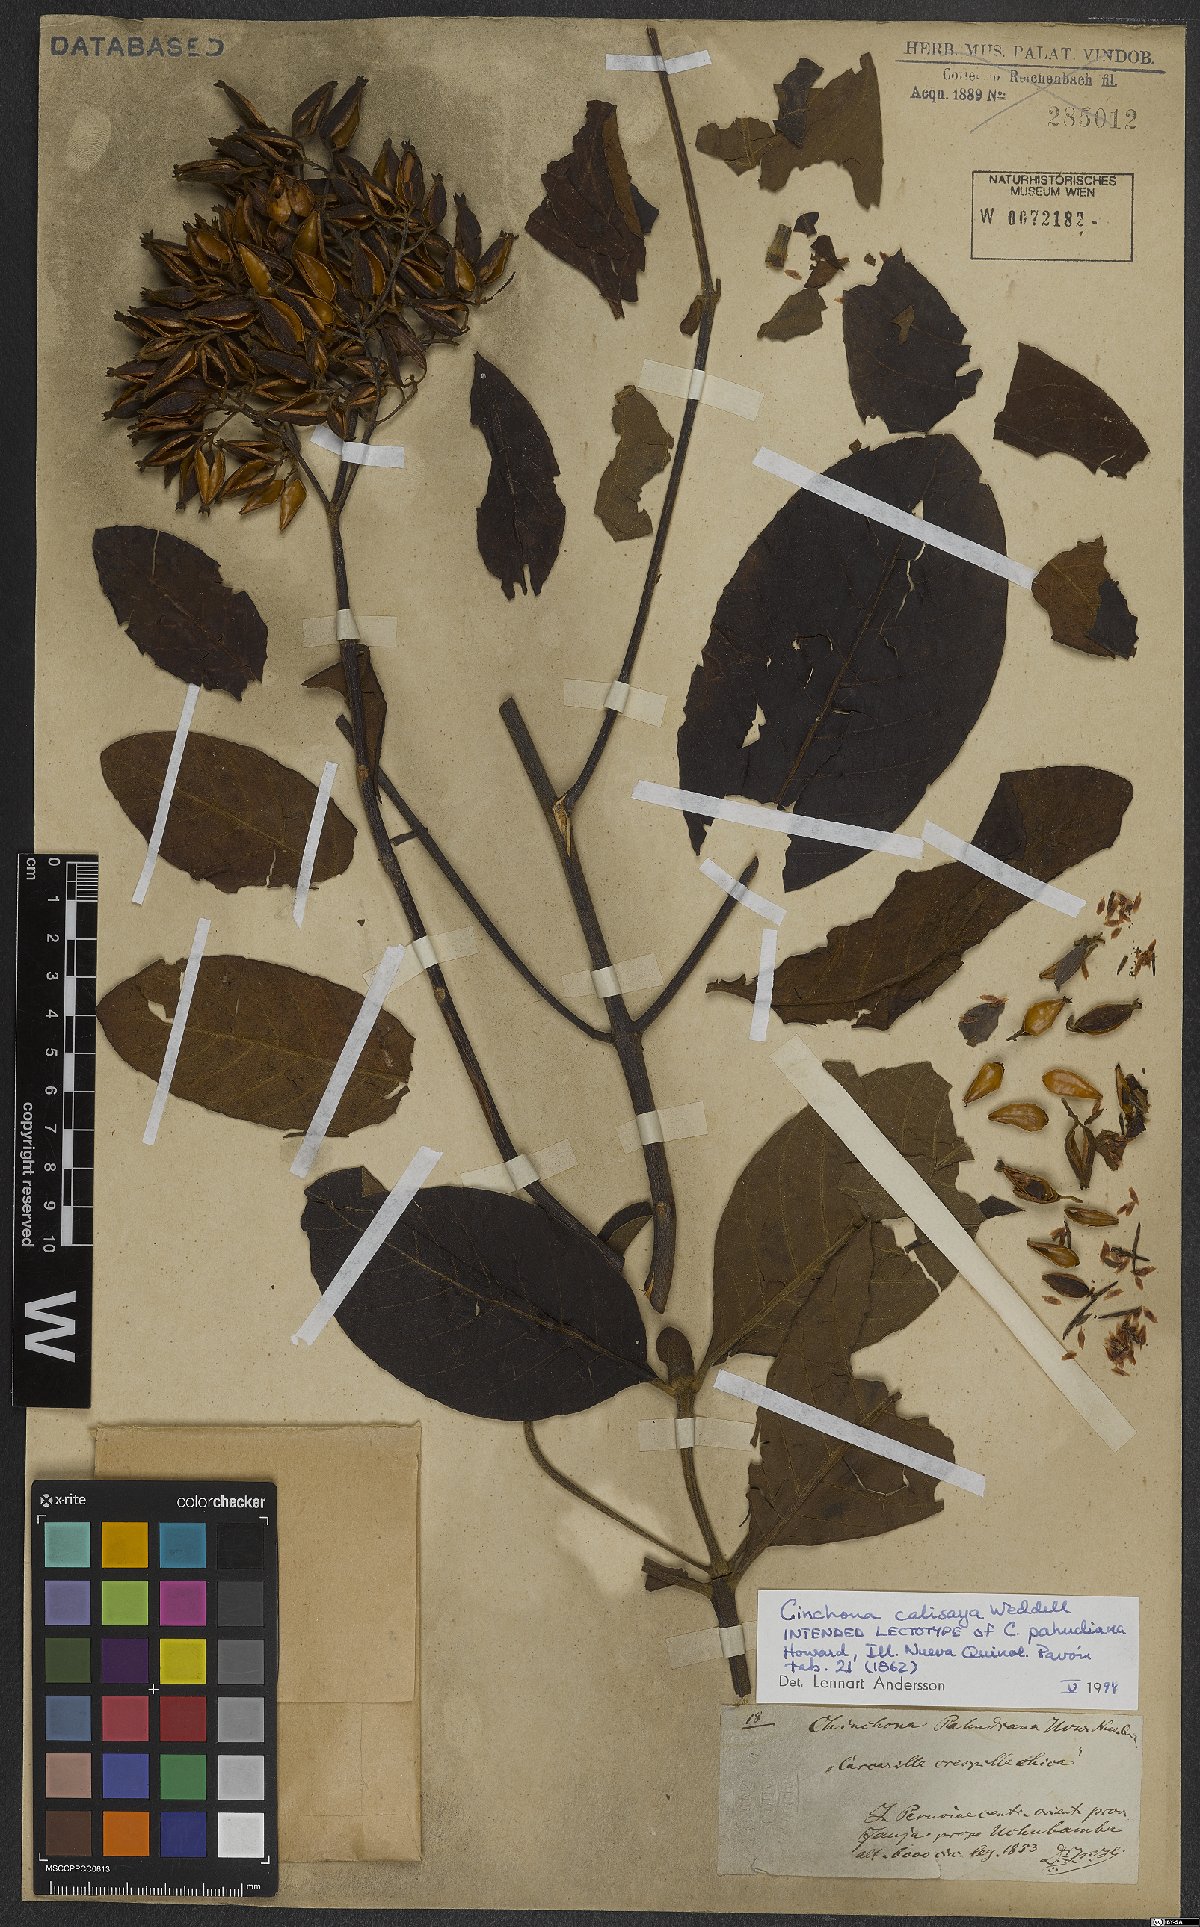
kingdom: Plantae
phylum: Tracheophyta
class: Magnoliopsida
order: Gentianales
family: Rubiaceae
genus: Cinchona
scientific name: Cinchona calisaya
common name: Ledgerbark
